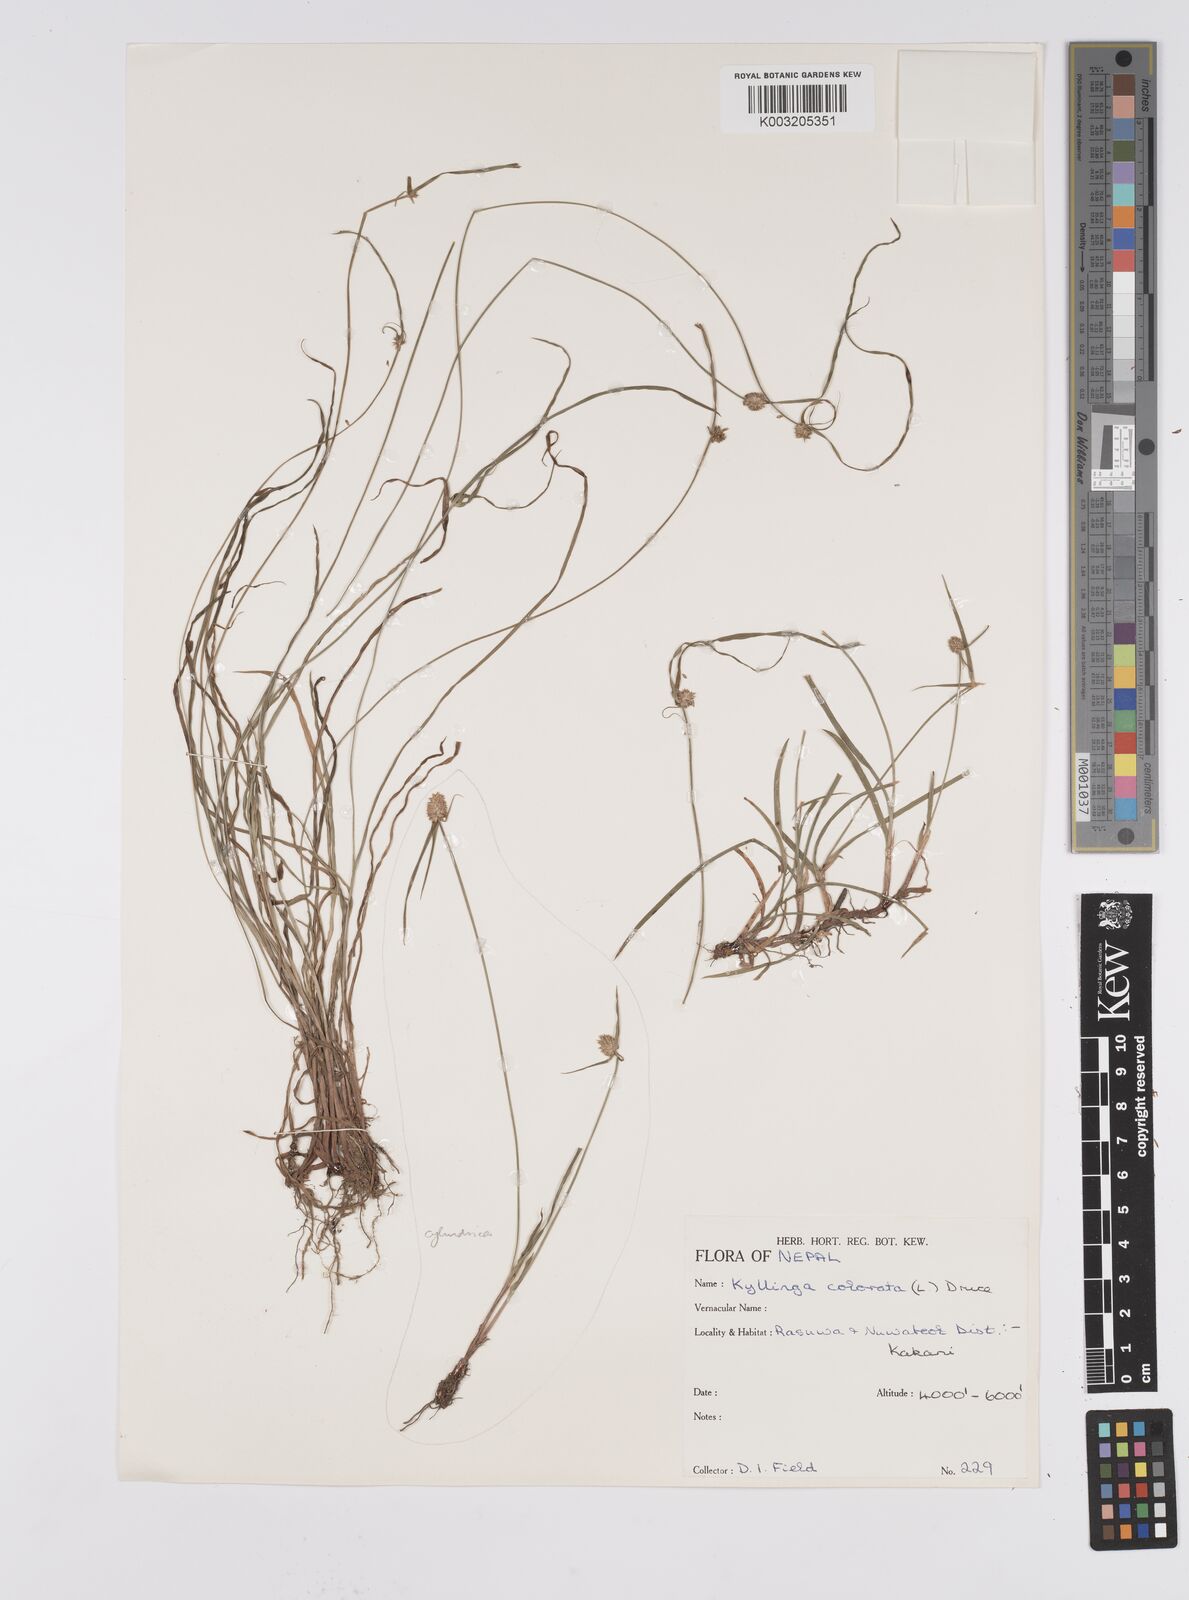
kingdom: Plantae
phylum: Tracheophyta
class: Liliopsida
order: Poales
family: Cyperaceae
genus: Cyperus
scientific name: Cyperus brevifolius
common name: Globe kyllinga
